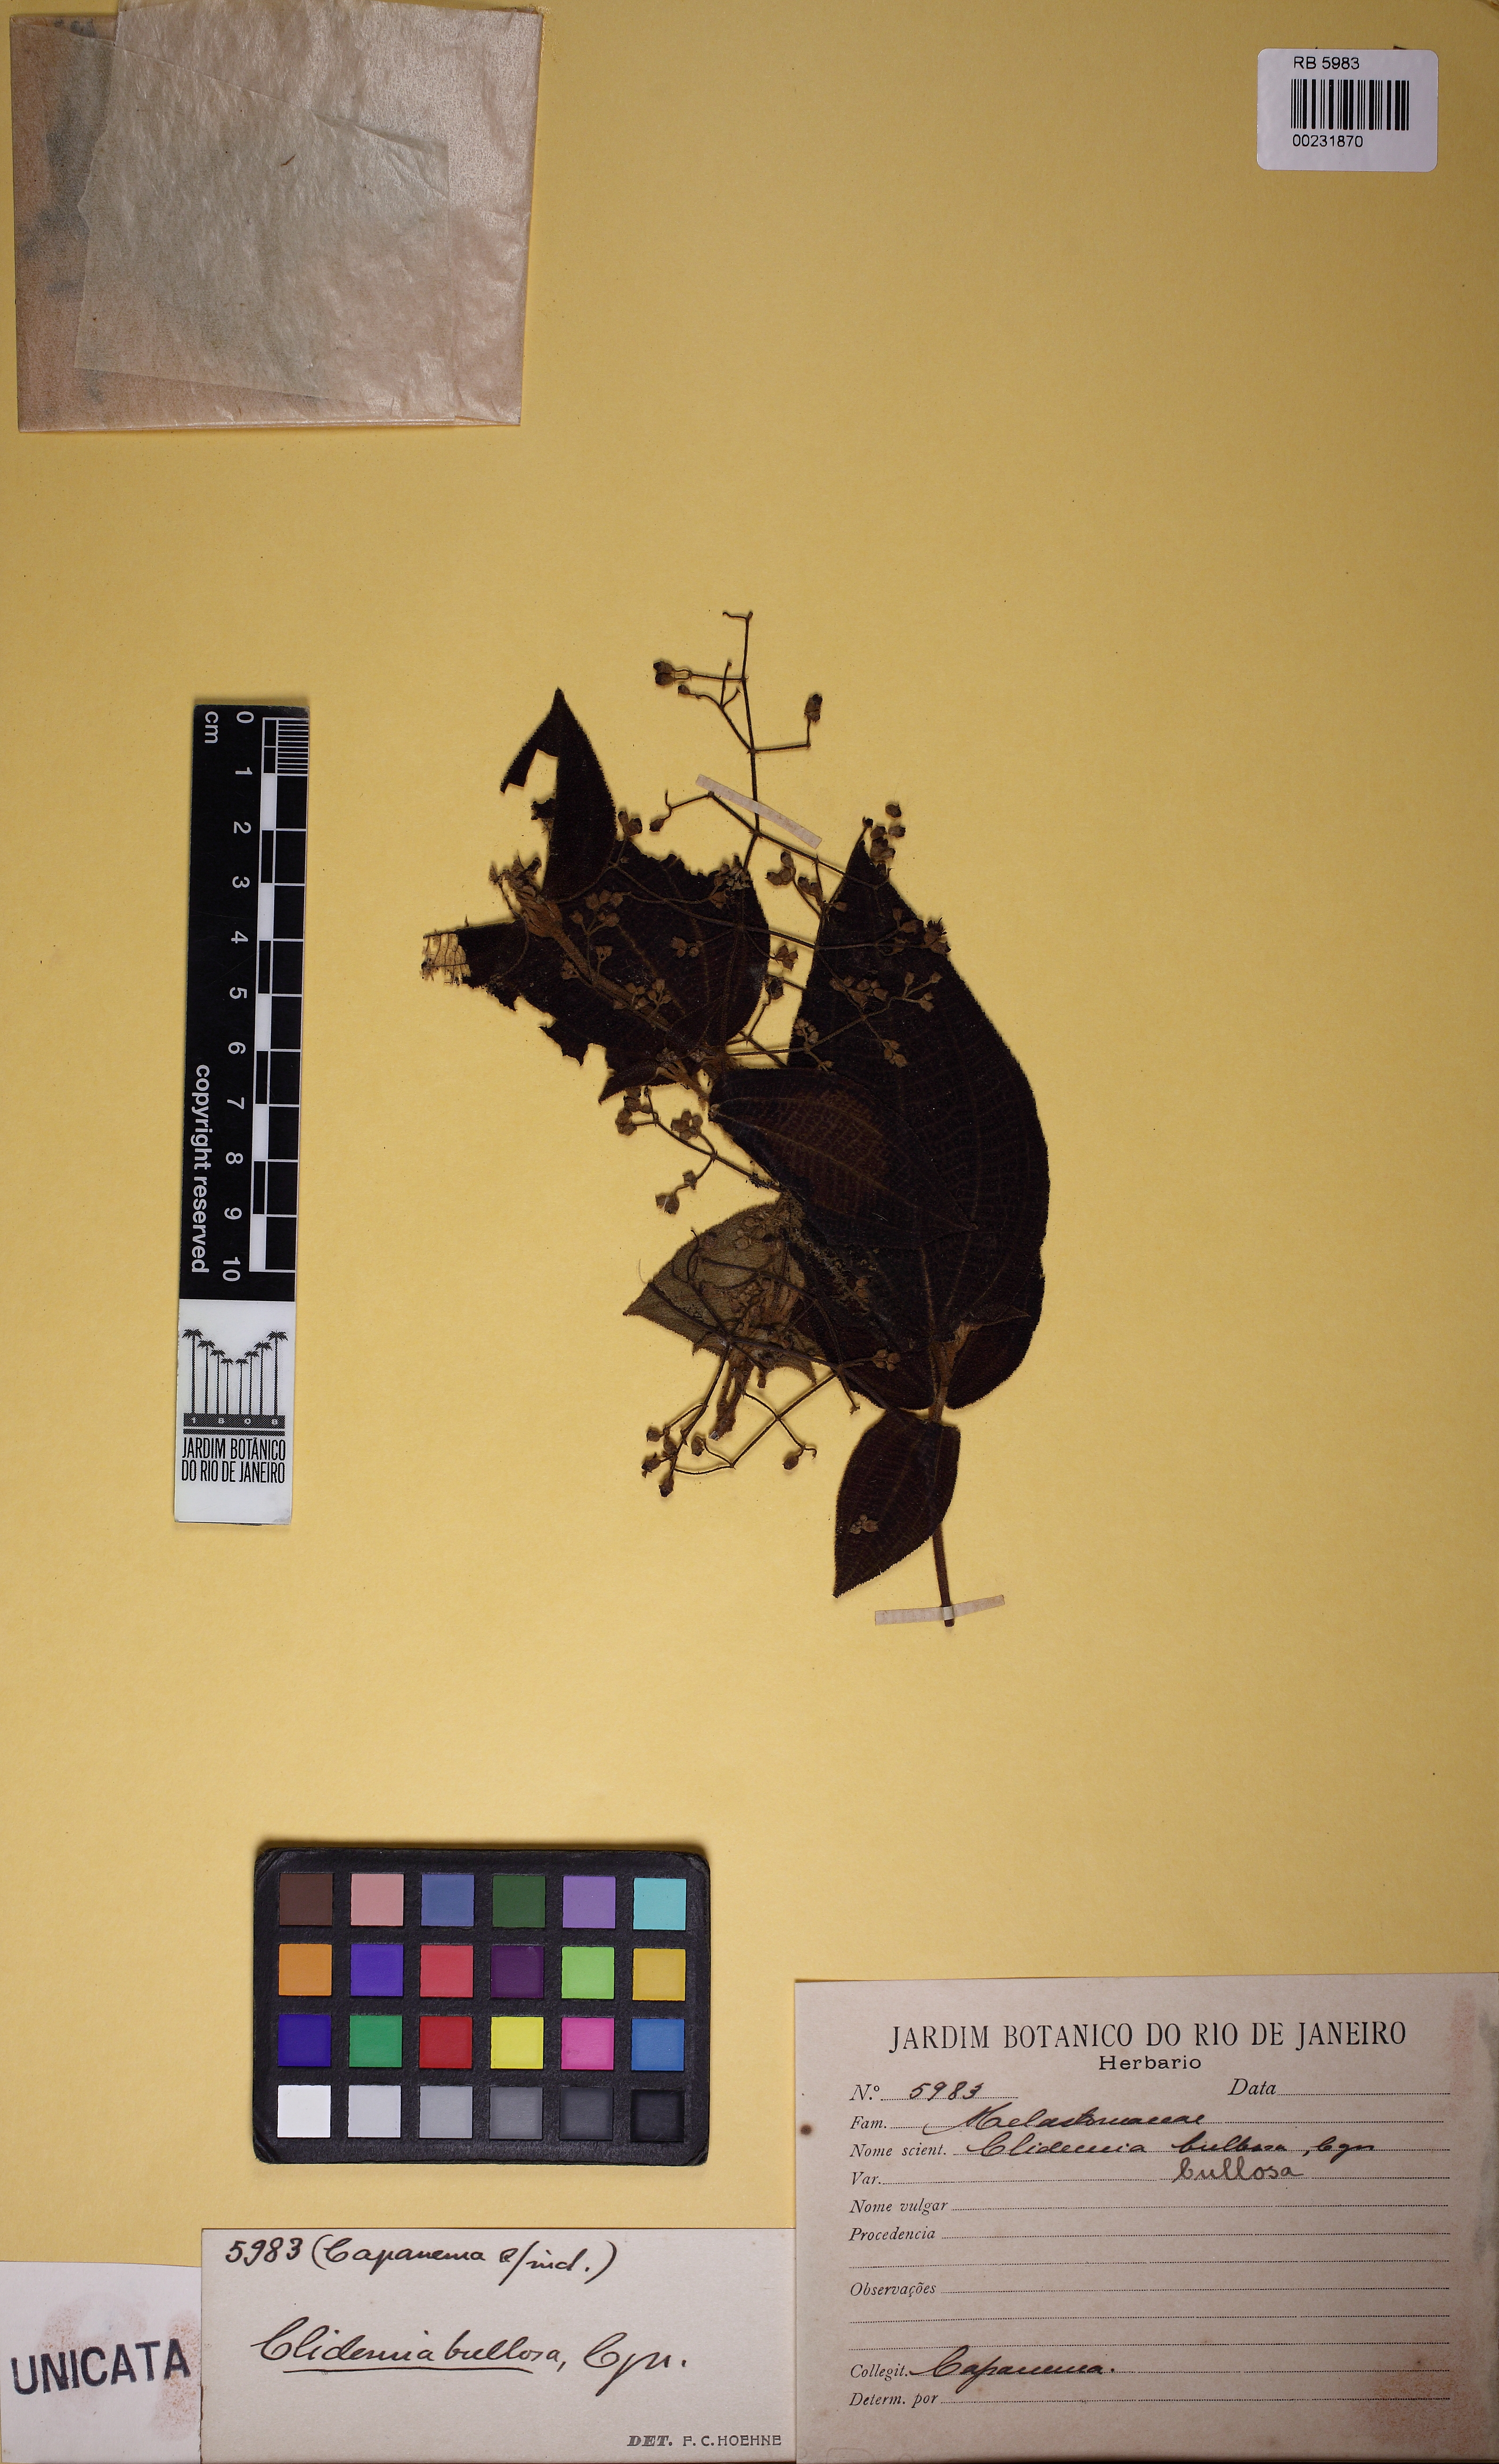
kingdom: Plantae
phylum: Tracheophyta
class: Magnoliopsida
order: Myrtales
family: Melastomataceae
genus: Miconia
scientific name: Miconia bullosa
